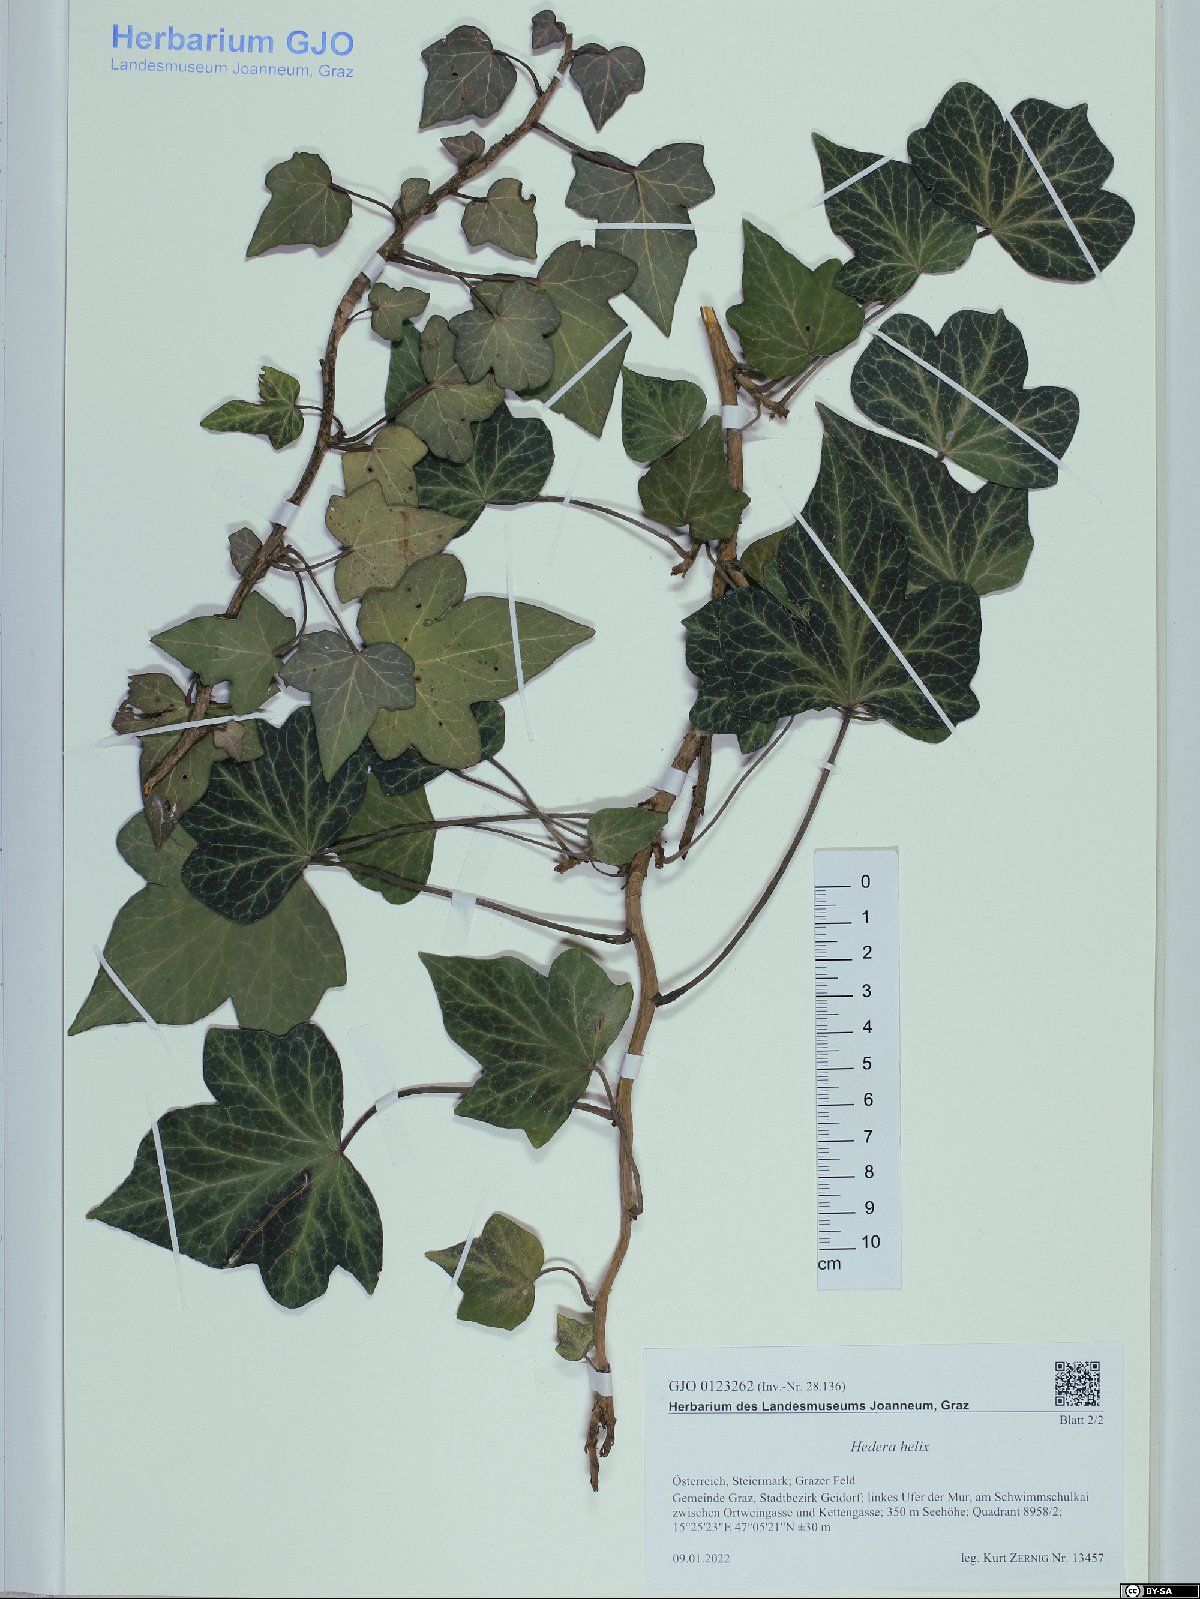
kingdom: Plantae
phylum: Tracheophyta
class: Magnoliopsida
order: Apiales
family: Araliaceae
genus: Hedera
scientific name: Hedera helix
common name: Ivy
